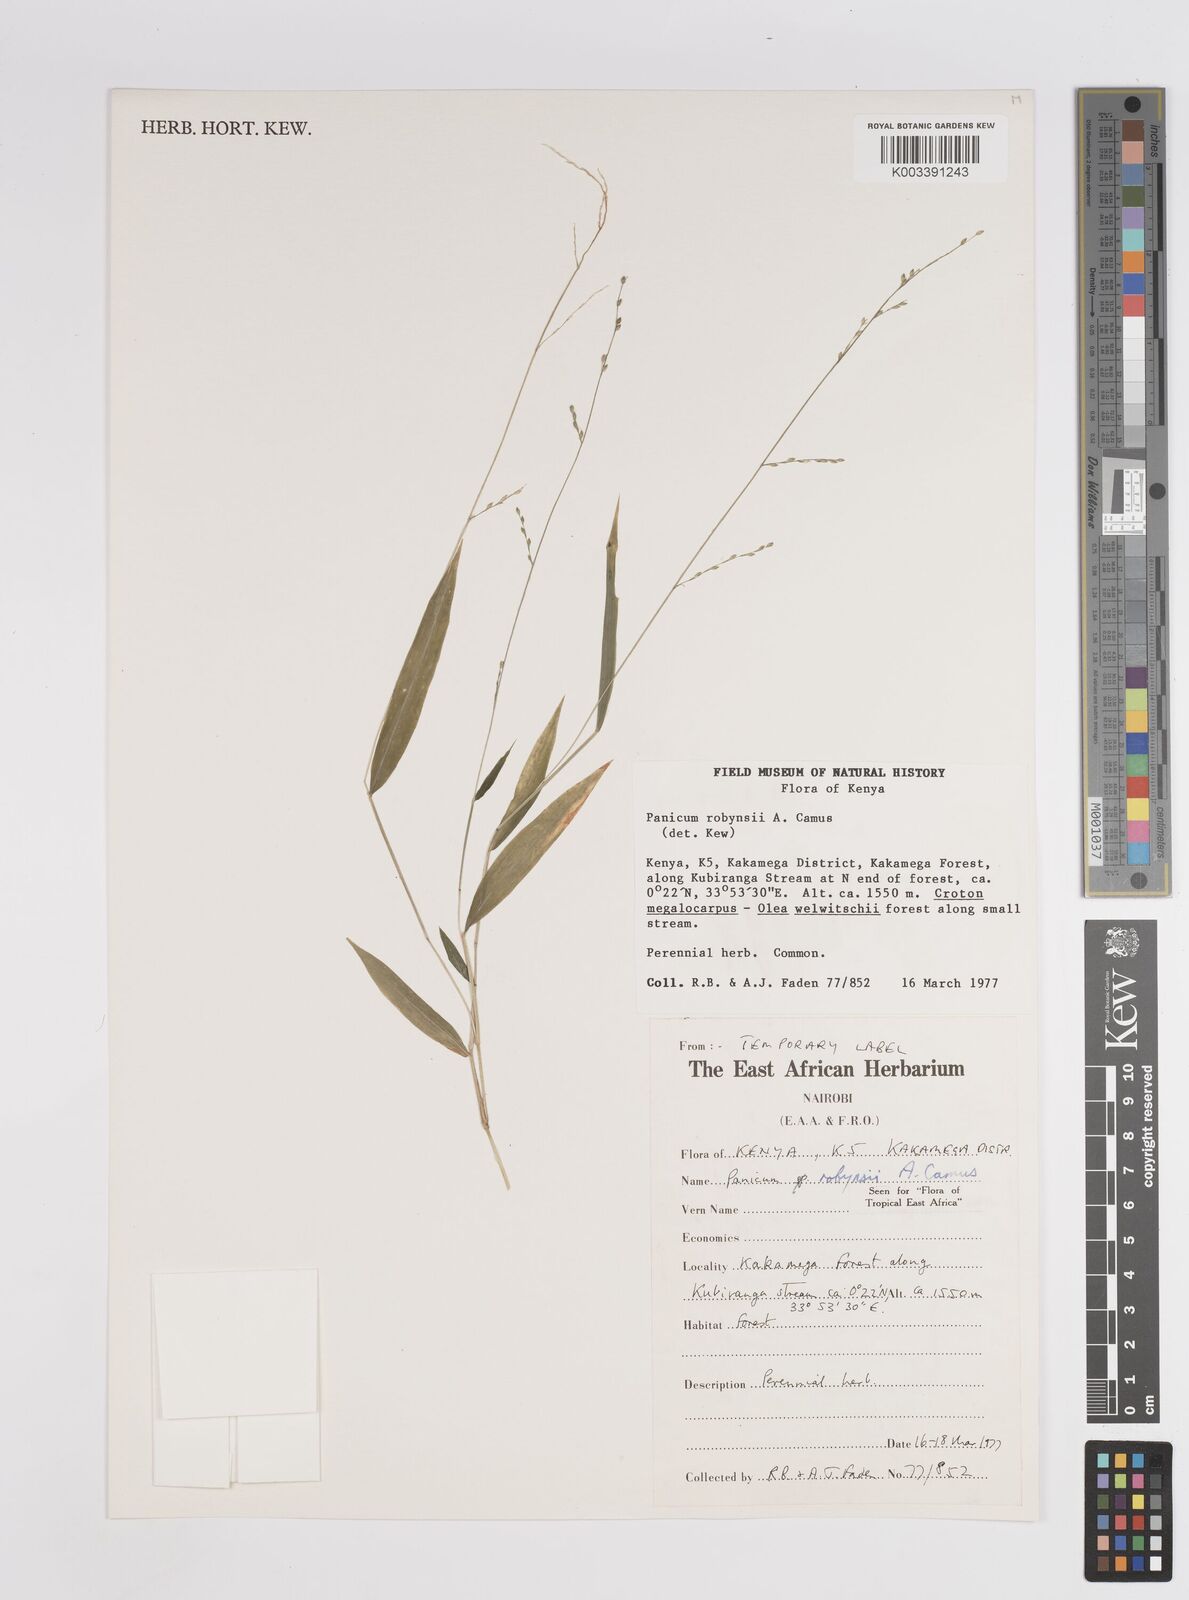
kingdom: Plantae
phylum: Tracheophyta
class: Liliopsida
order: Poales
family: Poaceae
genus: Panicum
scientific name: Panicum robynsii
